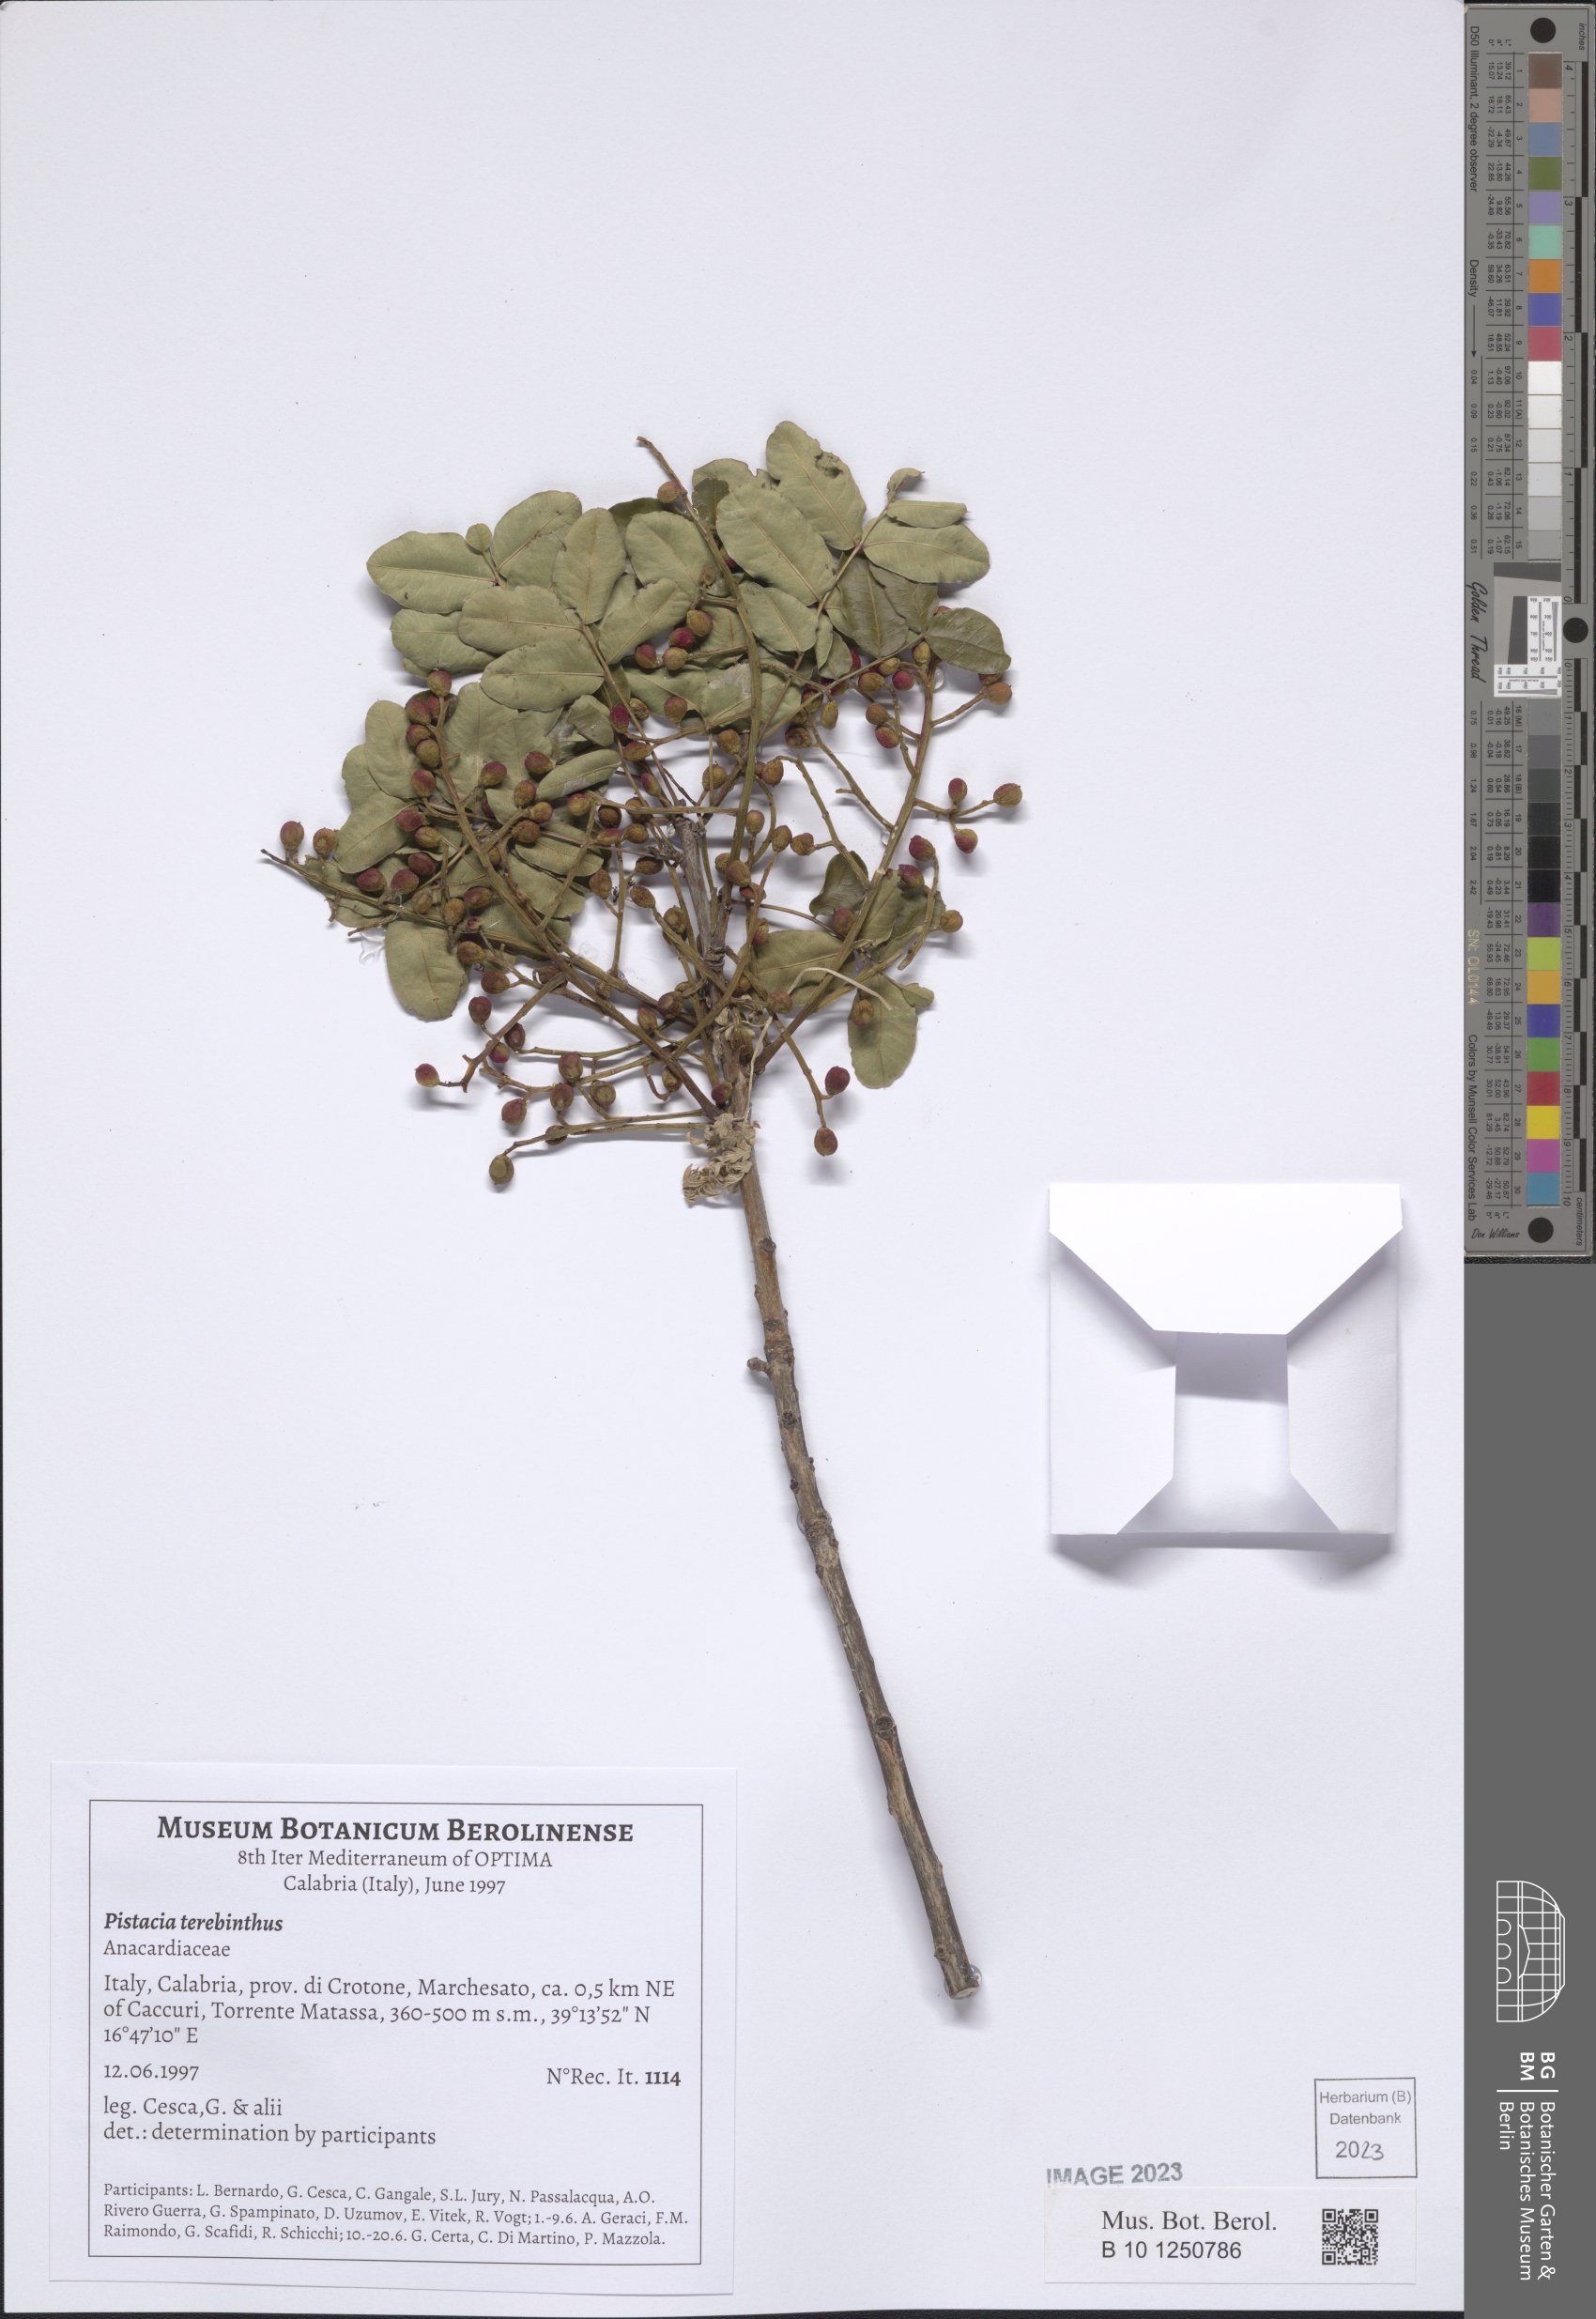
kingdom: Plantae
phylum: Tracheophyta
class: Magnoliopsida
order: Sapindales
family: Anacardiaceae
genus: Pistacia
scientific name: Pistacia terebinthus
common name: Terebinth
